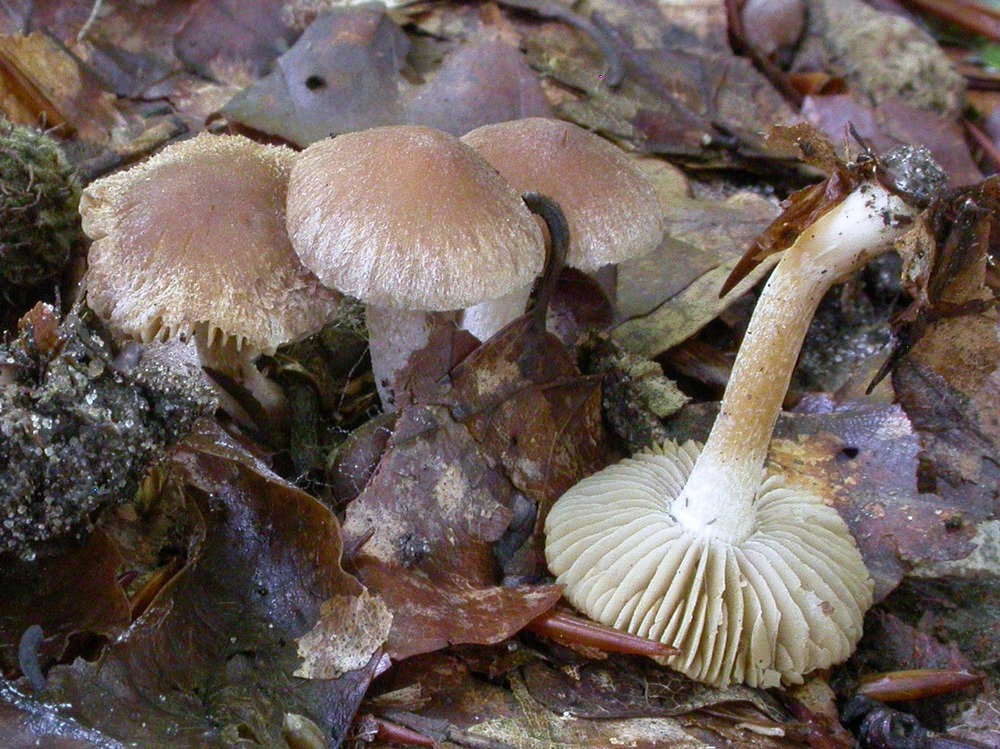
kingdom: Fungi
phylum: Basidiomycota
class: Agaricomycetes
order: Agaricales
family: Inocybaceae
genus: Inocybe
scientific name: Inocybe
